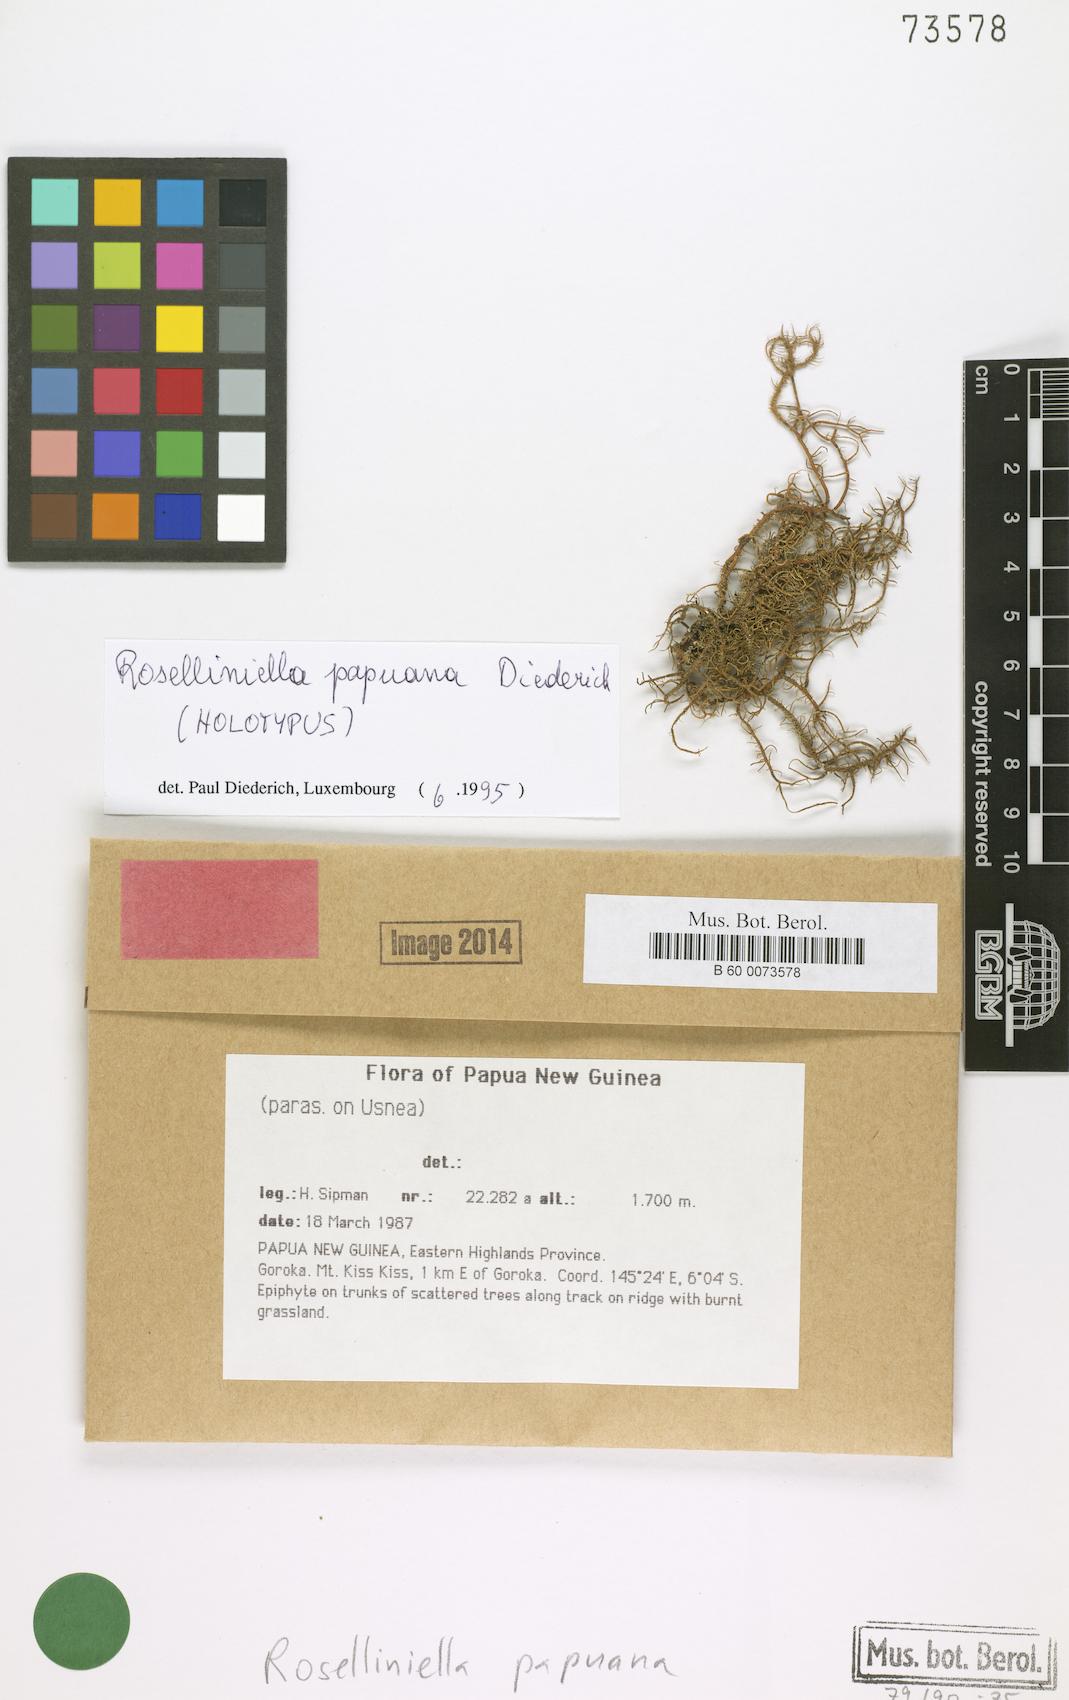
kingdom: Fungi
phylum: Ascomycota
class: Sordariomycetes
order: Sordariales
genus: Roselliniella
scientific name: Roselliniella papuana
